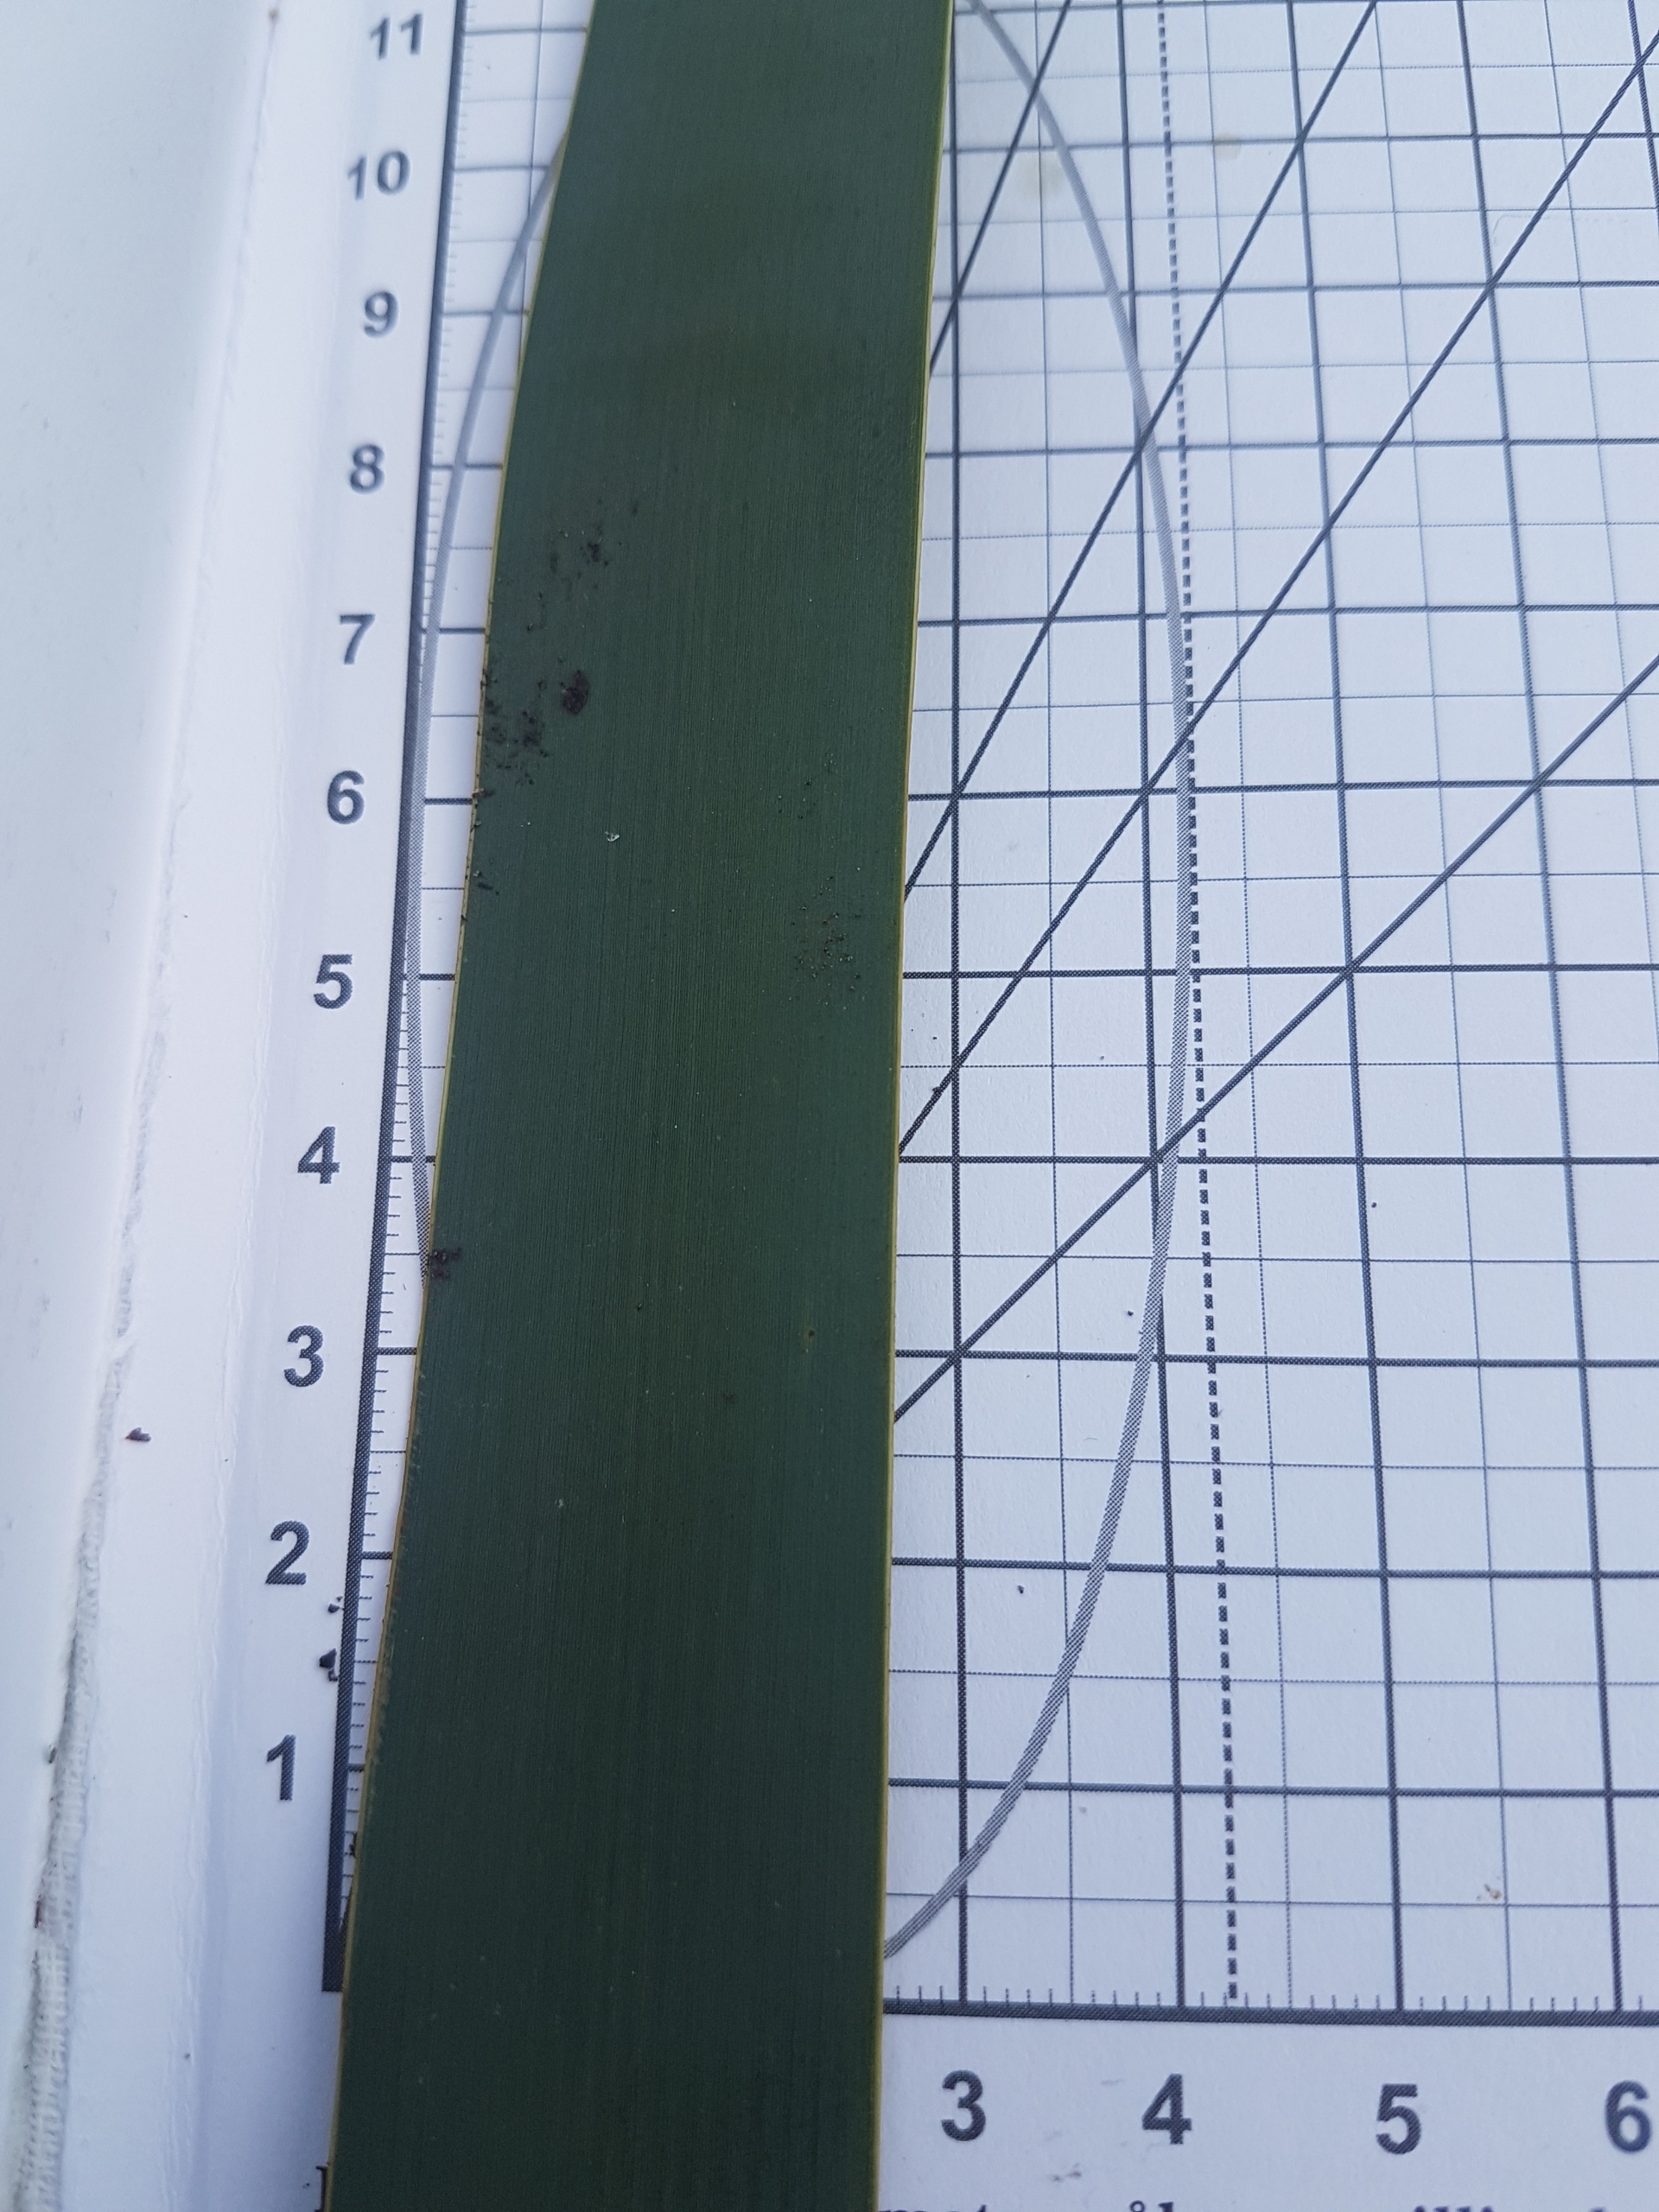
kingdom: Plantae
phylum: Tracheophyta
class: Liliopsida
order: Poales
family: Typhaceae
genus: Typha
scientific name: Typha latifolia
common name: Bredbladet dunhammer
